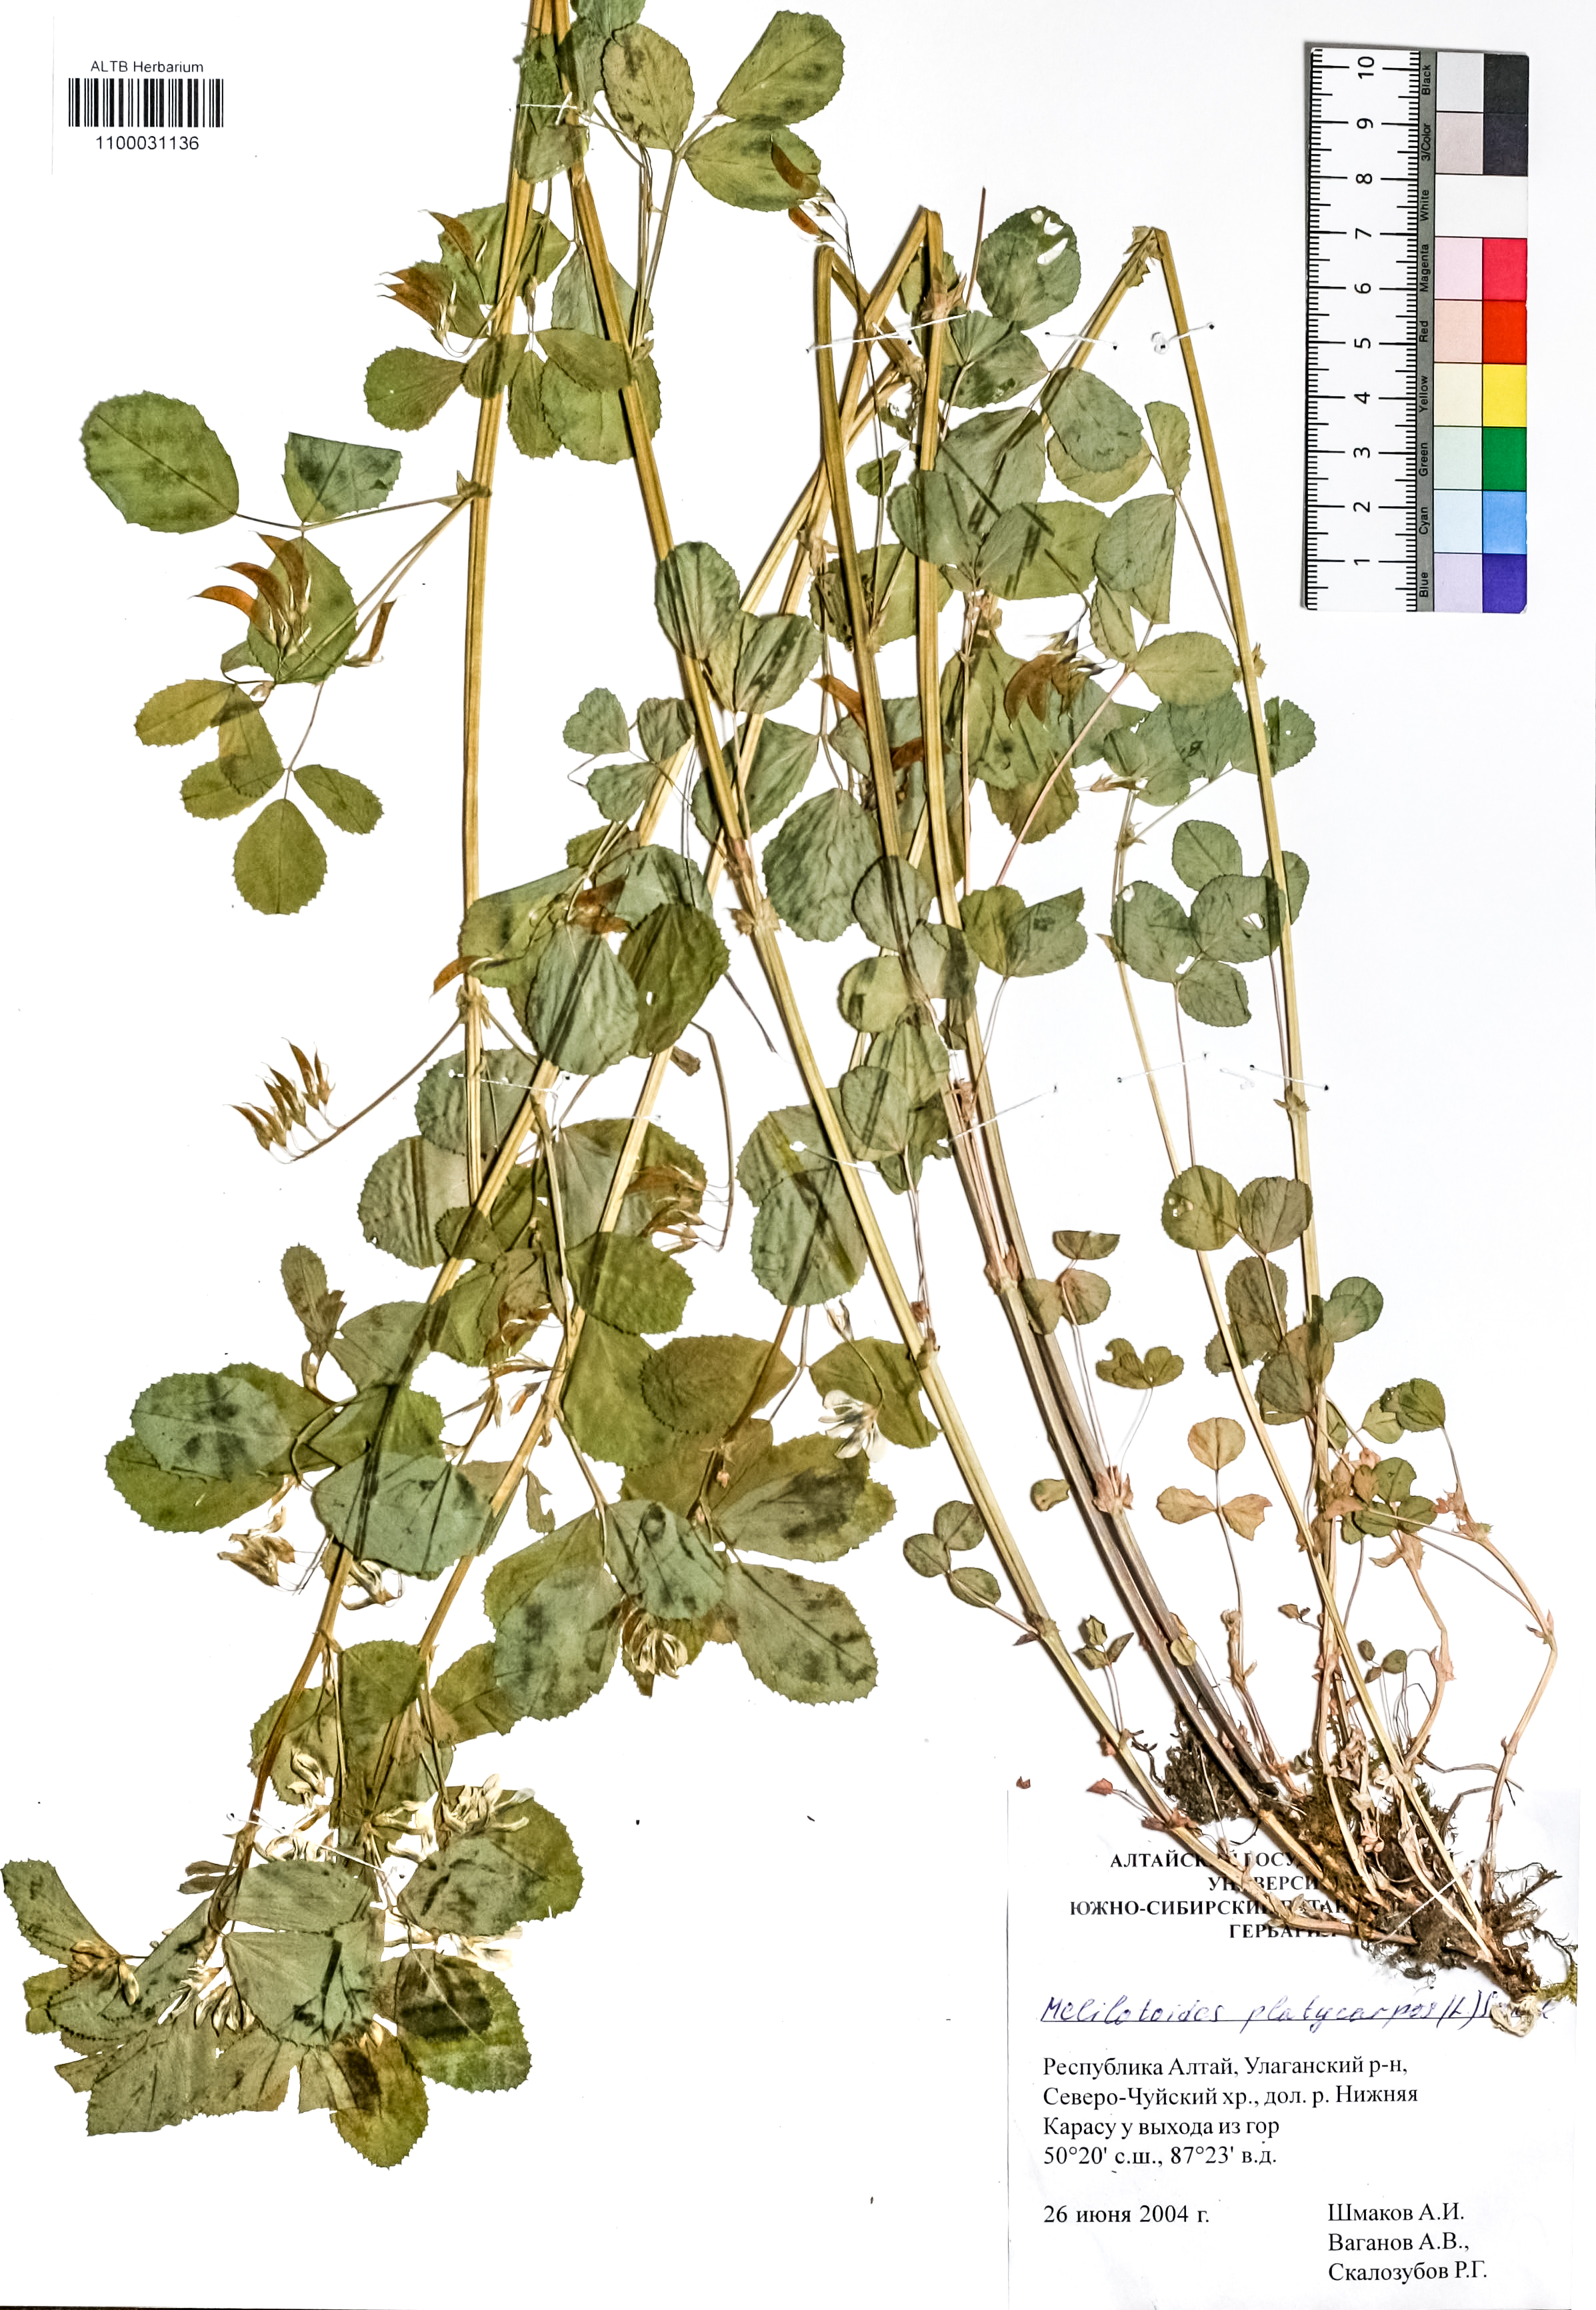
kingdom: Plantae
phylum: Tracheophyta
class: Magnoliopsida
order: Fabales
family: Fabaceae
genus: Medicago
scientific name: Medicago platycarpos
